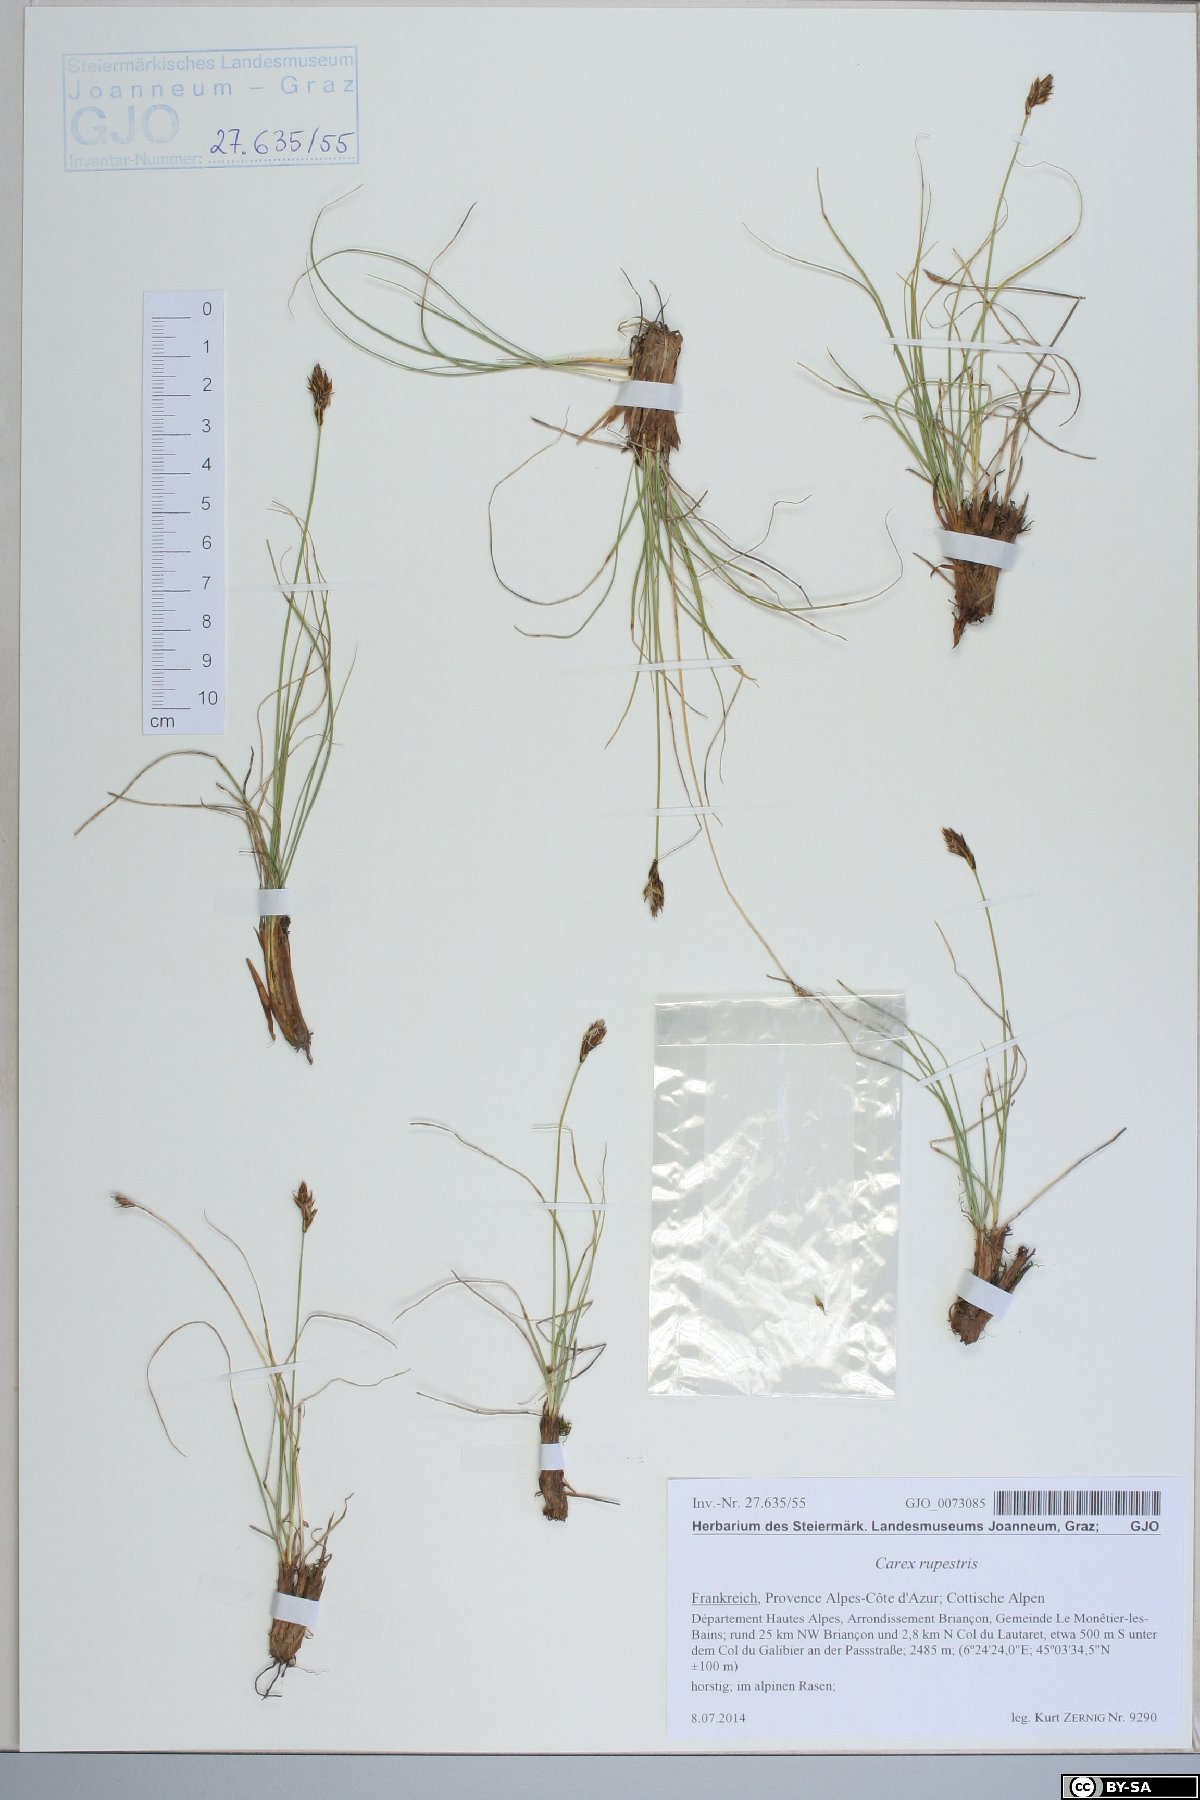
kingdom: Plantae
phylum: Tracheophyta
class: Liliopsida
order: Poales
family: Cyperaceae
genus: Carex
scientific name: Carex rupestris
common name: Rock sedge
